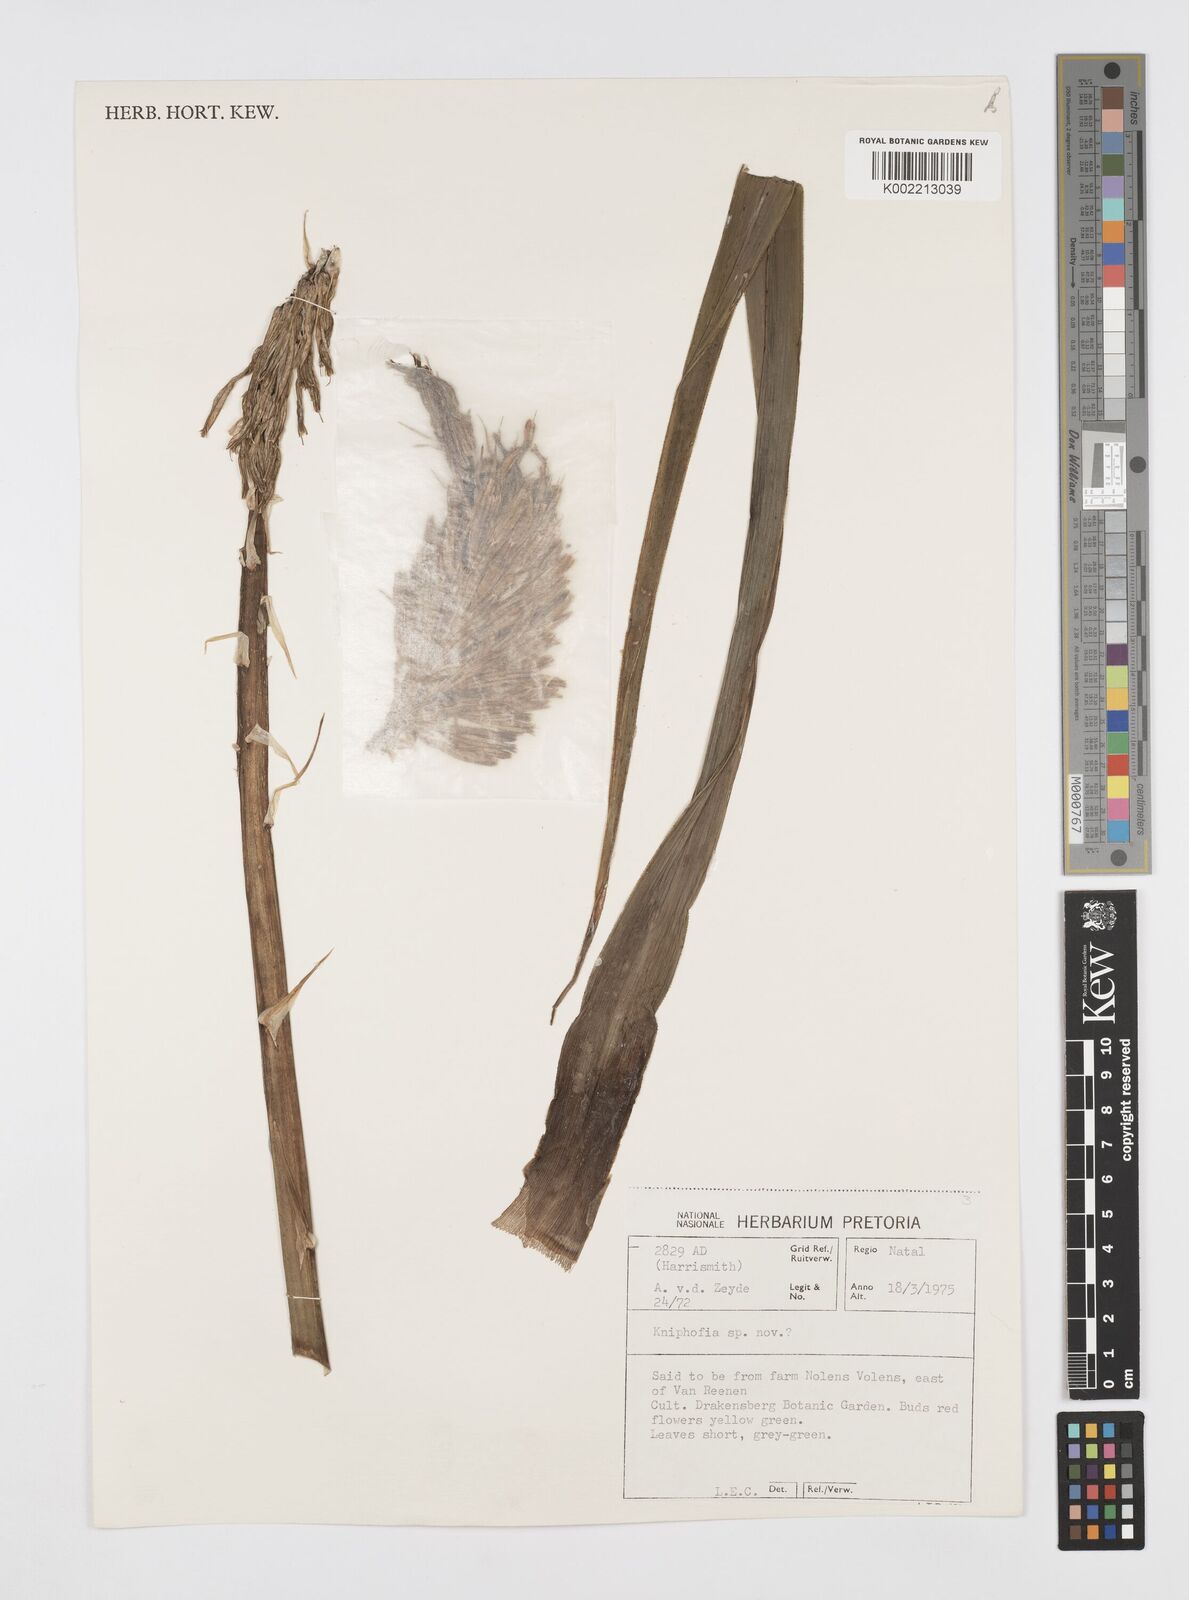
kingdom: Plantae
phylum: Tracheophyta
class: Liliopsida
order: Asparagales
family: Asphodelaceae
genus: Kniphofia
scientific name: Kniphofia
